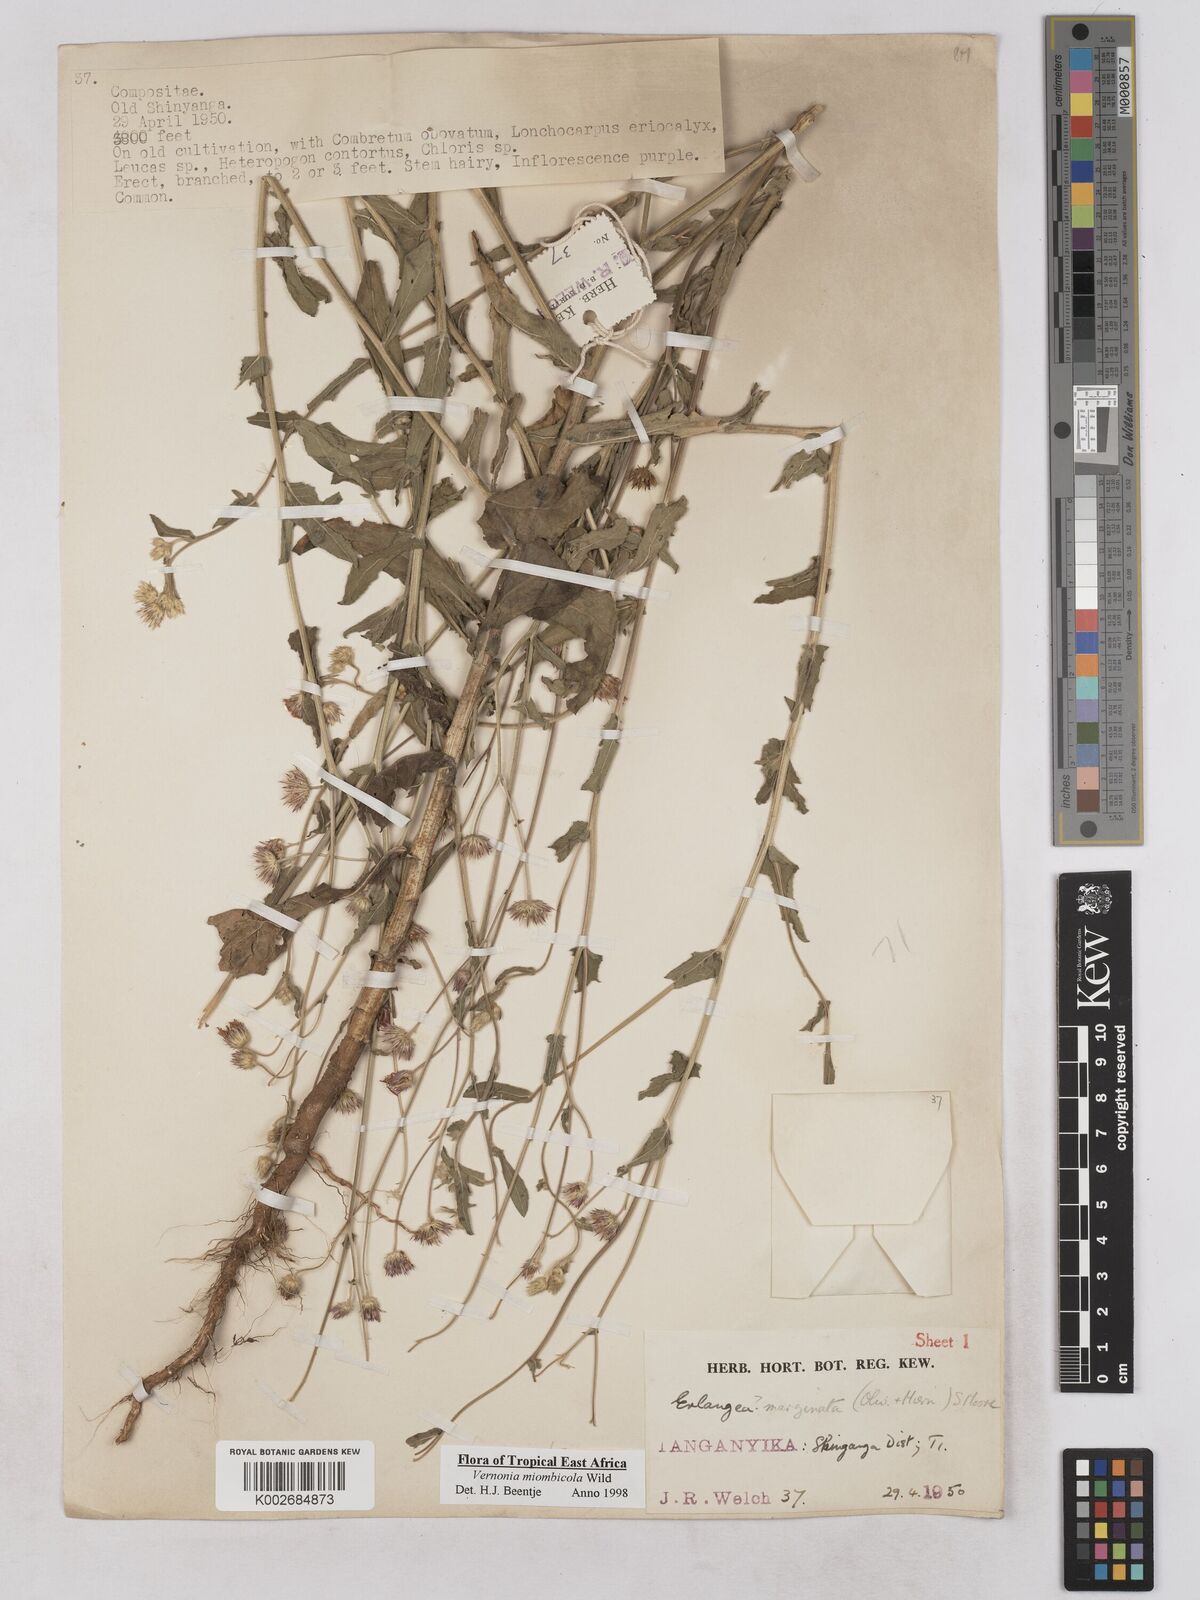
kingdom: Plantae
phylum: Tracheophyta
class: Magnoliopsida
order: Asterales
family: Asteraceae
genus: Vernonia
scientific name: Vernonia miombicola
